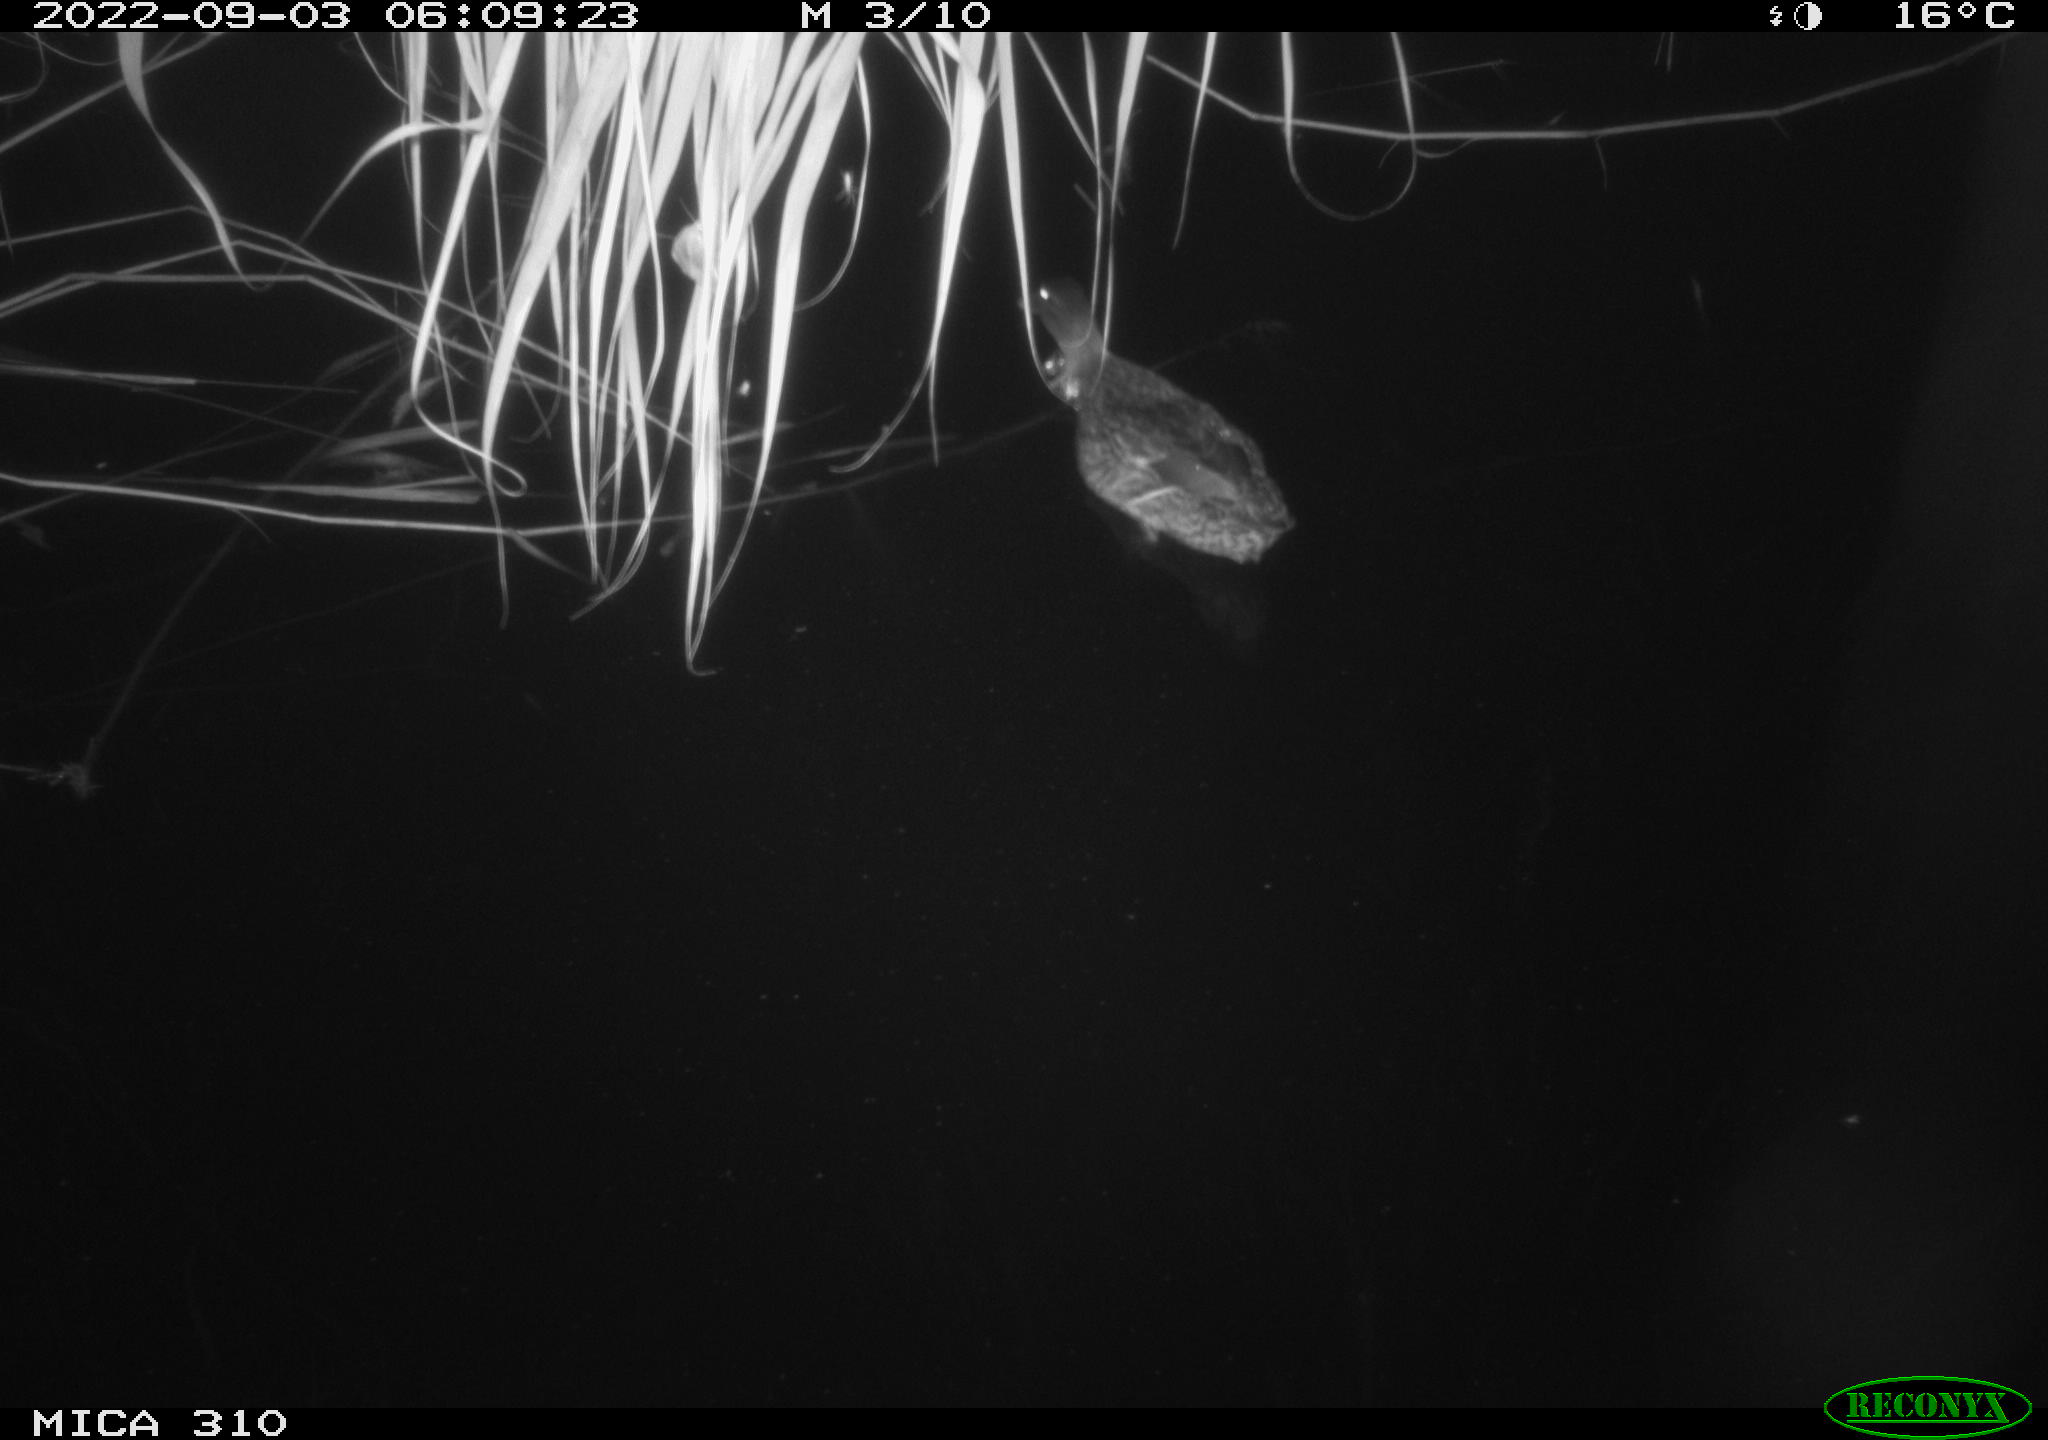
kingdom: Animalia
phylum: Chordata
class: Aves
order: Anseriformes
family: Anatidae
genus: Anas
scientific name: Anas platyrhynchos
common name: Mallard
